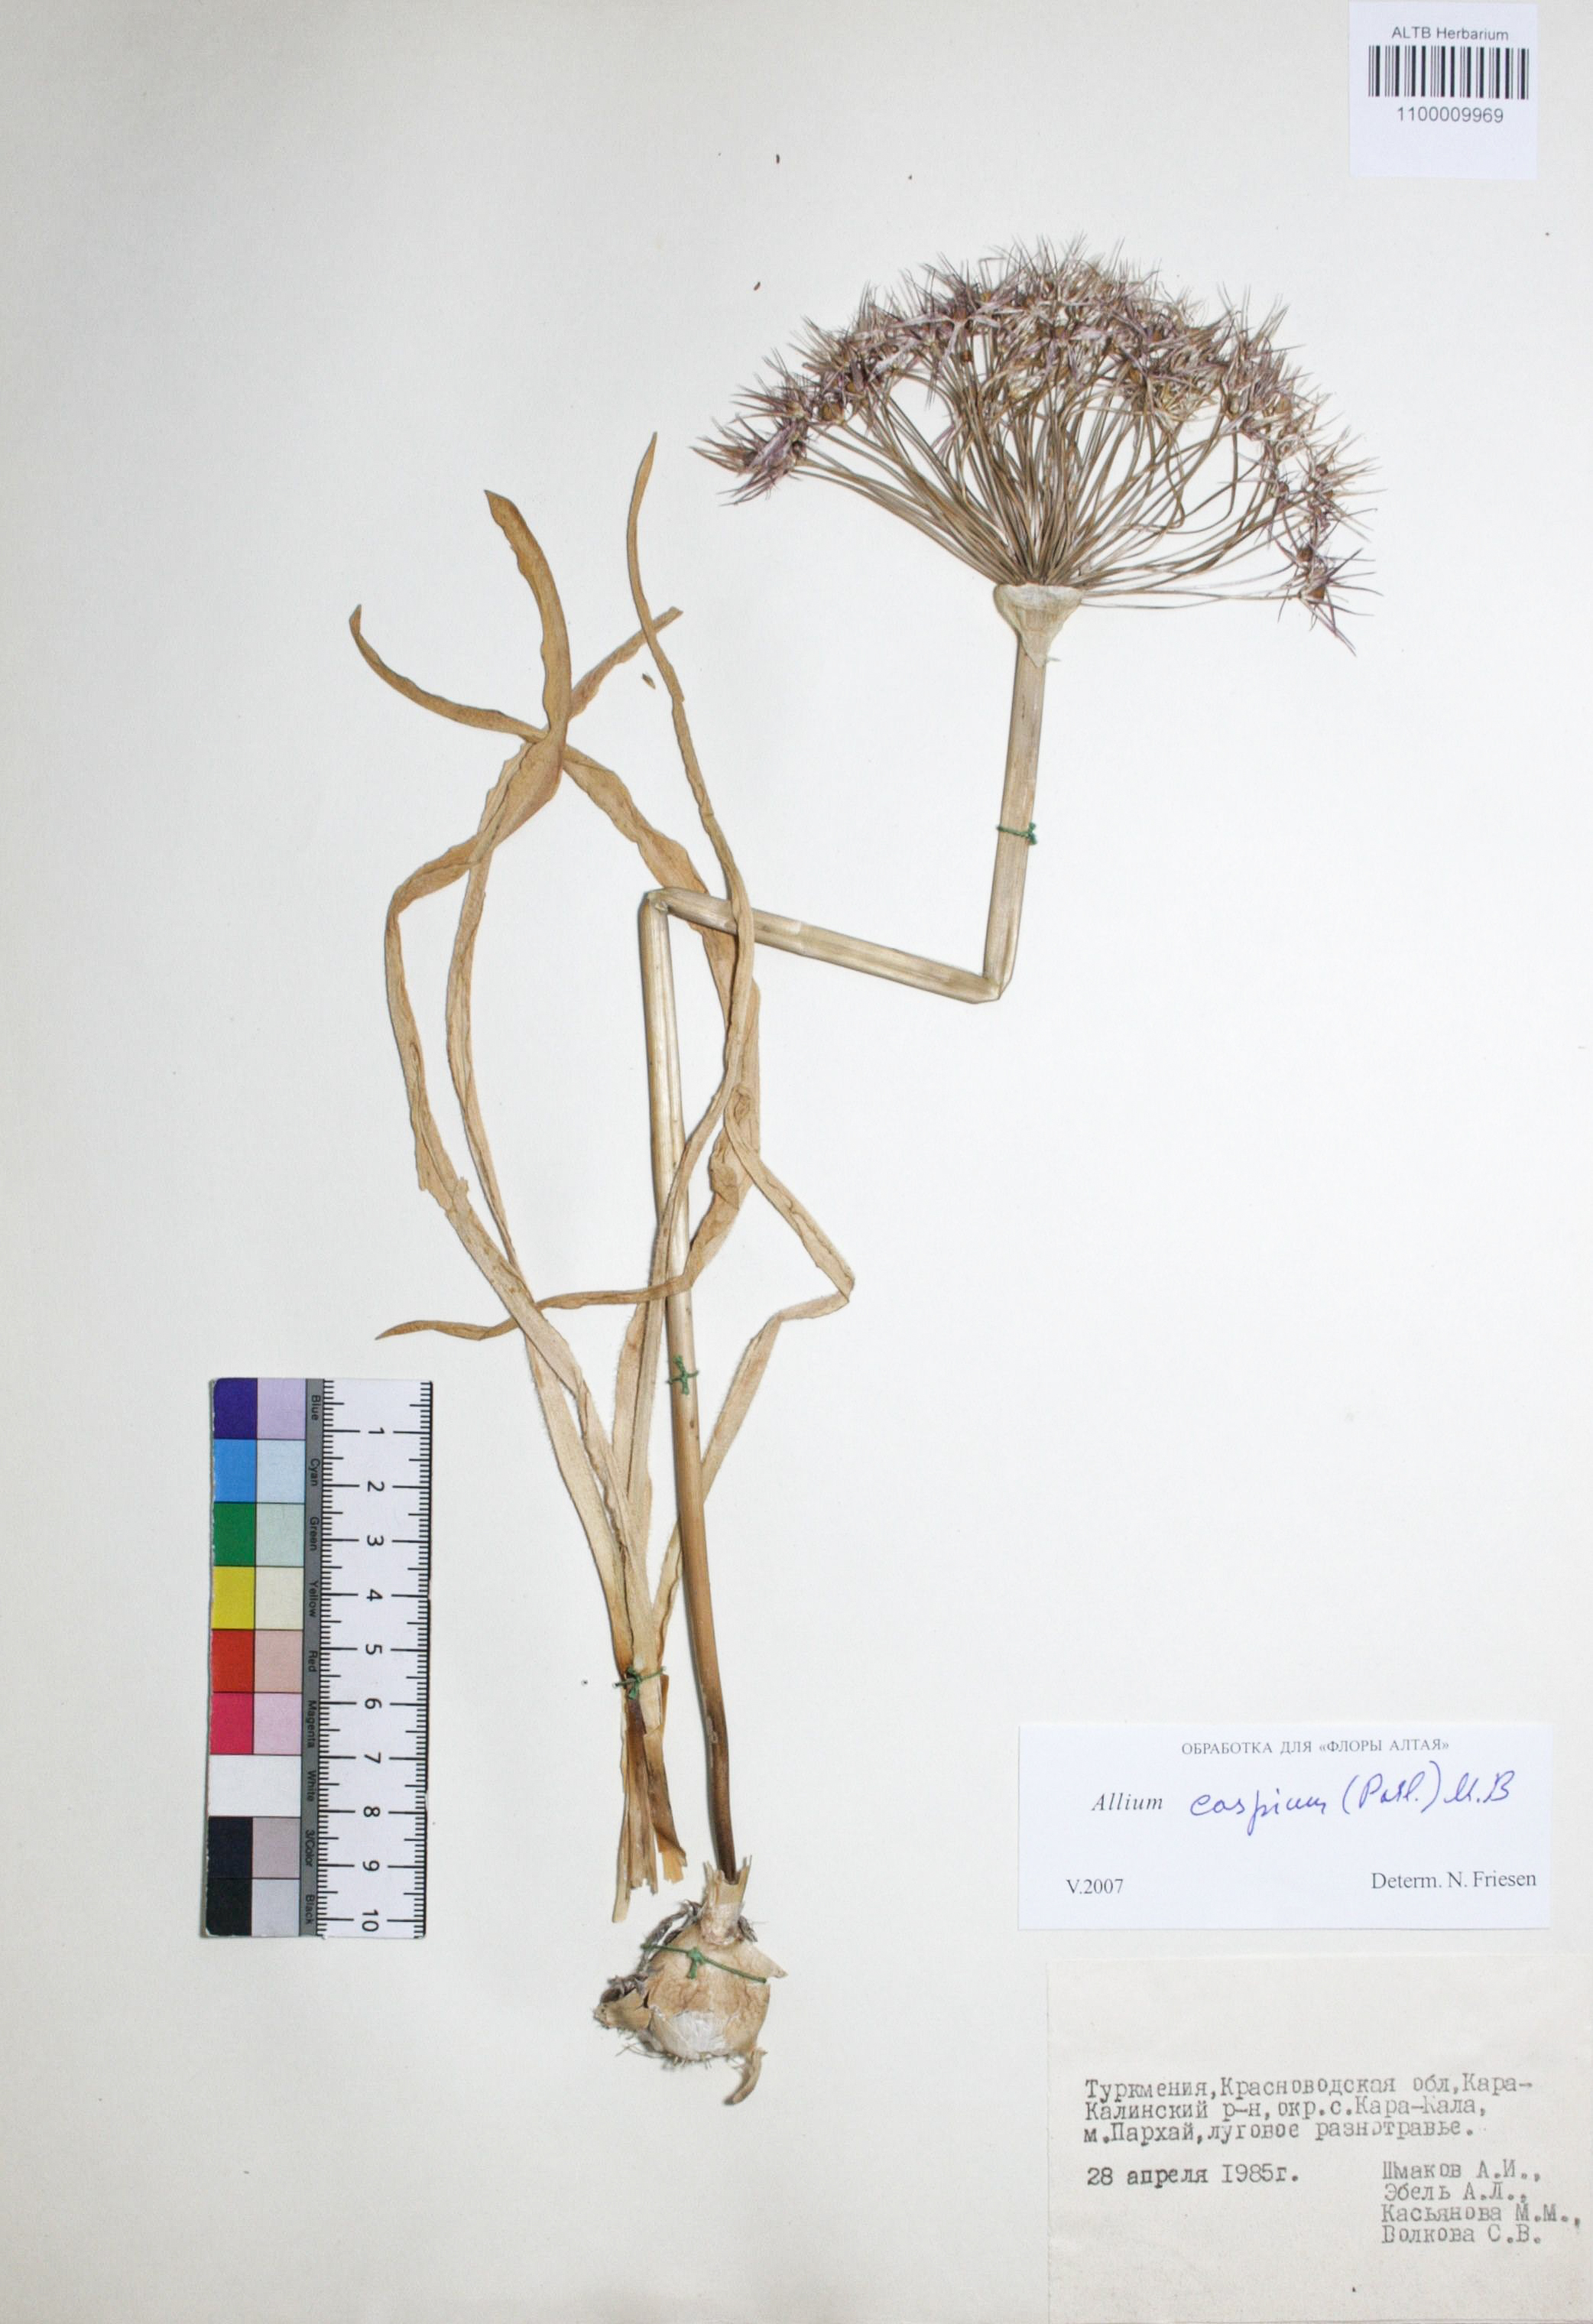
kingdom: Plantae
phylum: Tracheophyta
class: Liliopsida
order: Asparagales
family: Amaryllidaceae
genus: Allium
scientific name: Allium caspium
